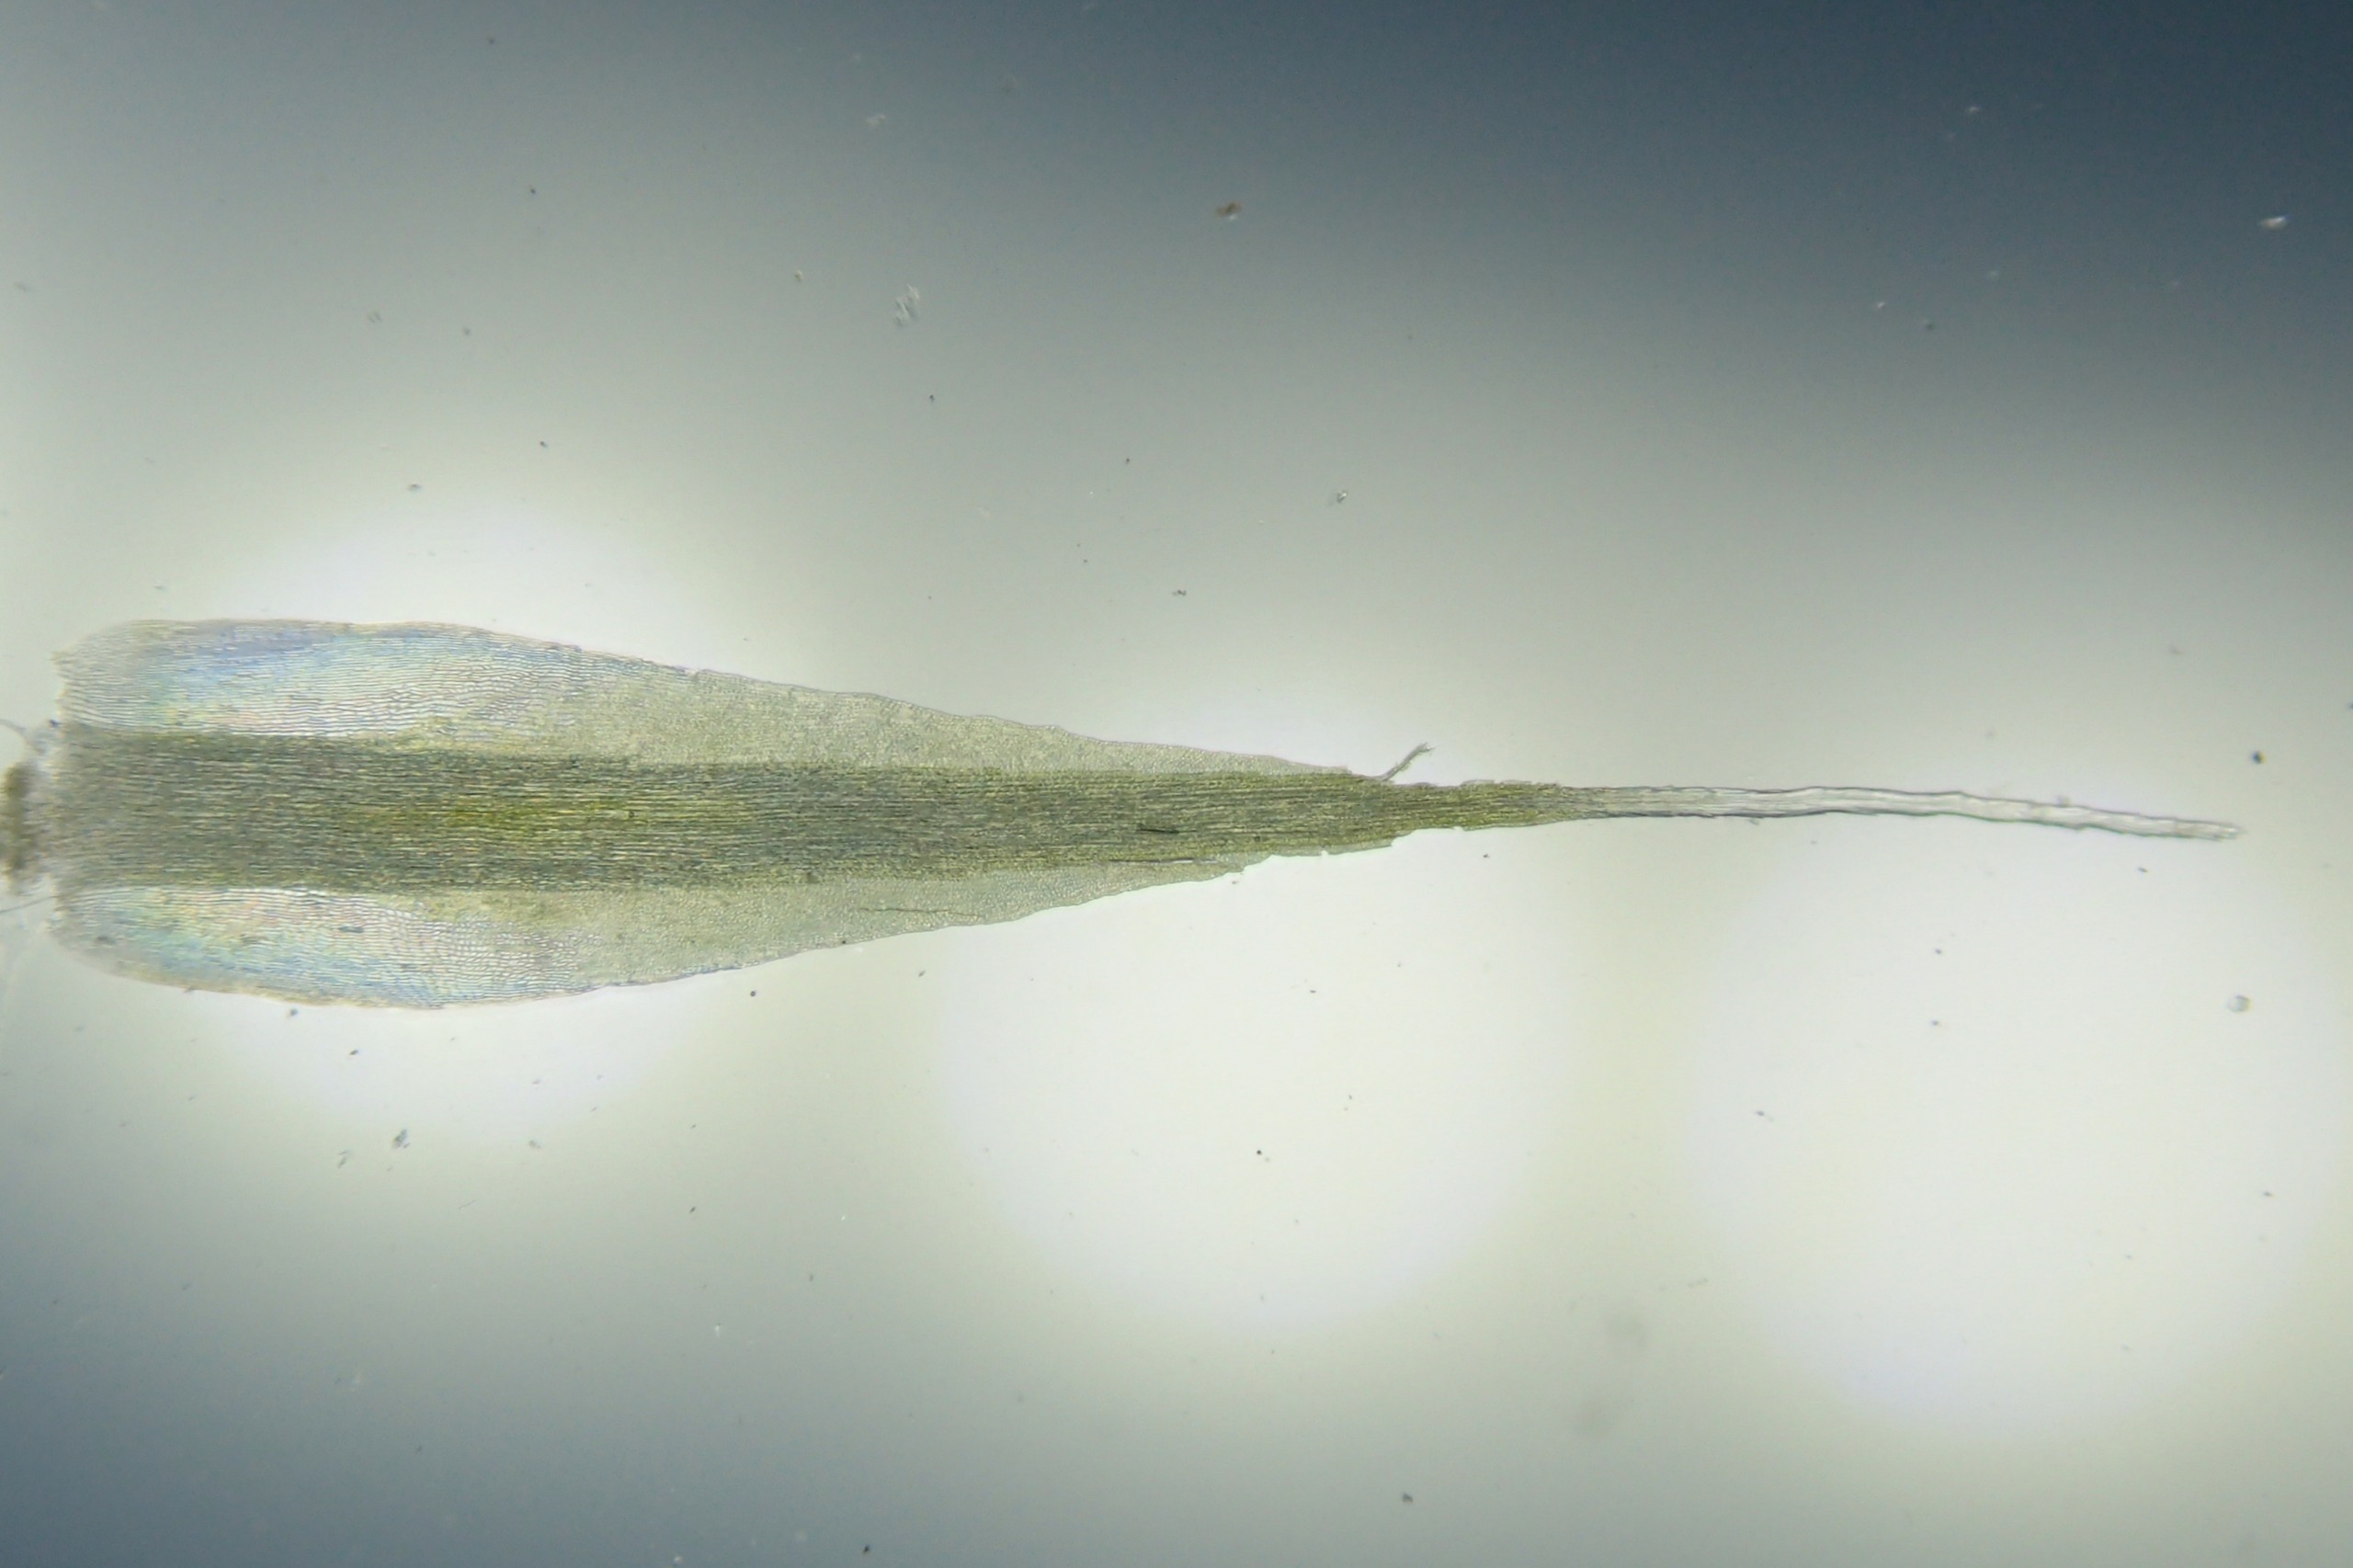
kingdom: Plantae
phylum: Bryophyta
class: Bryopsida
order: Dicranales
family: Leucobryaceae
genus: Campylopus
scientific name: Campylopus introflexus
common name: Stjerne-bredribbe
